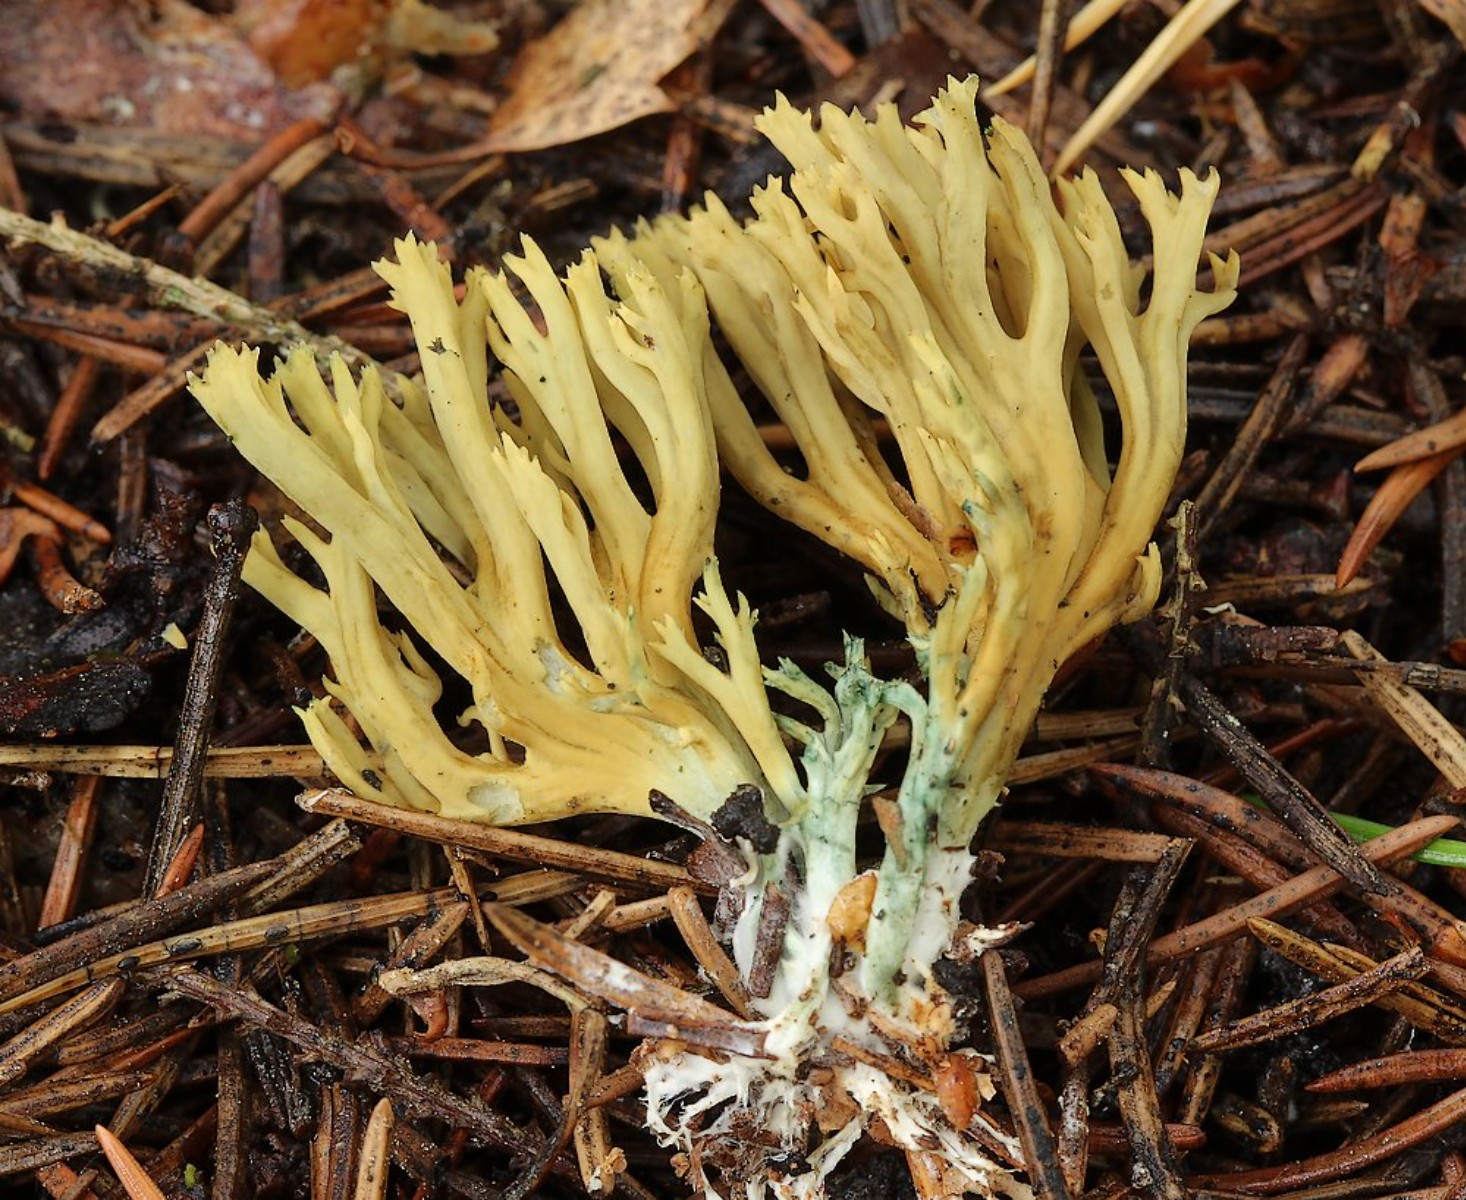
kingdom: Fungi
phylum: Basidiomycota
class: Agaricomycetes
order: Gomphales
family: Gomphaceae
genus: Phaeoclavulina
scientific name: Phaeoclavulina abietina
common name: gulgrøn koralsvamp
